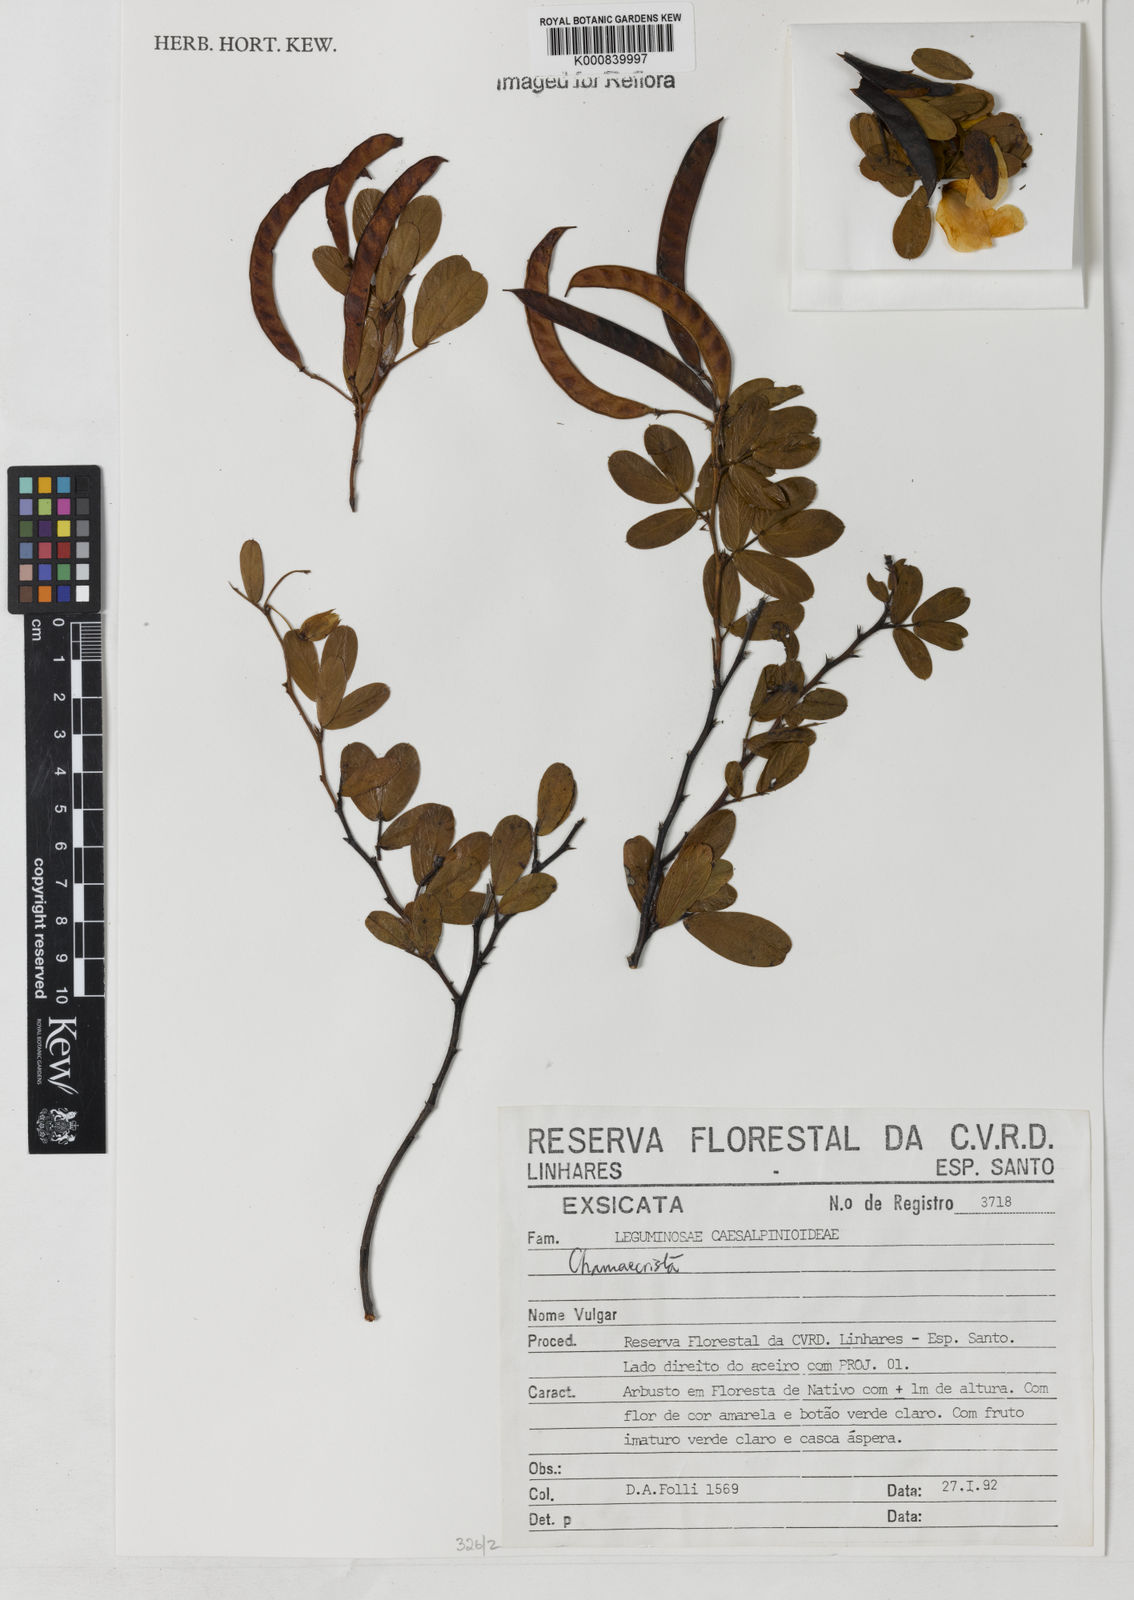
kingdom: Plantae
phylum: Tracheophyta
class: Magnoliopsida
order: Fabales
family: Fabaceae
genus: Chamaecrista
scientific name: Chamaecrista mucronata
